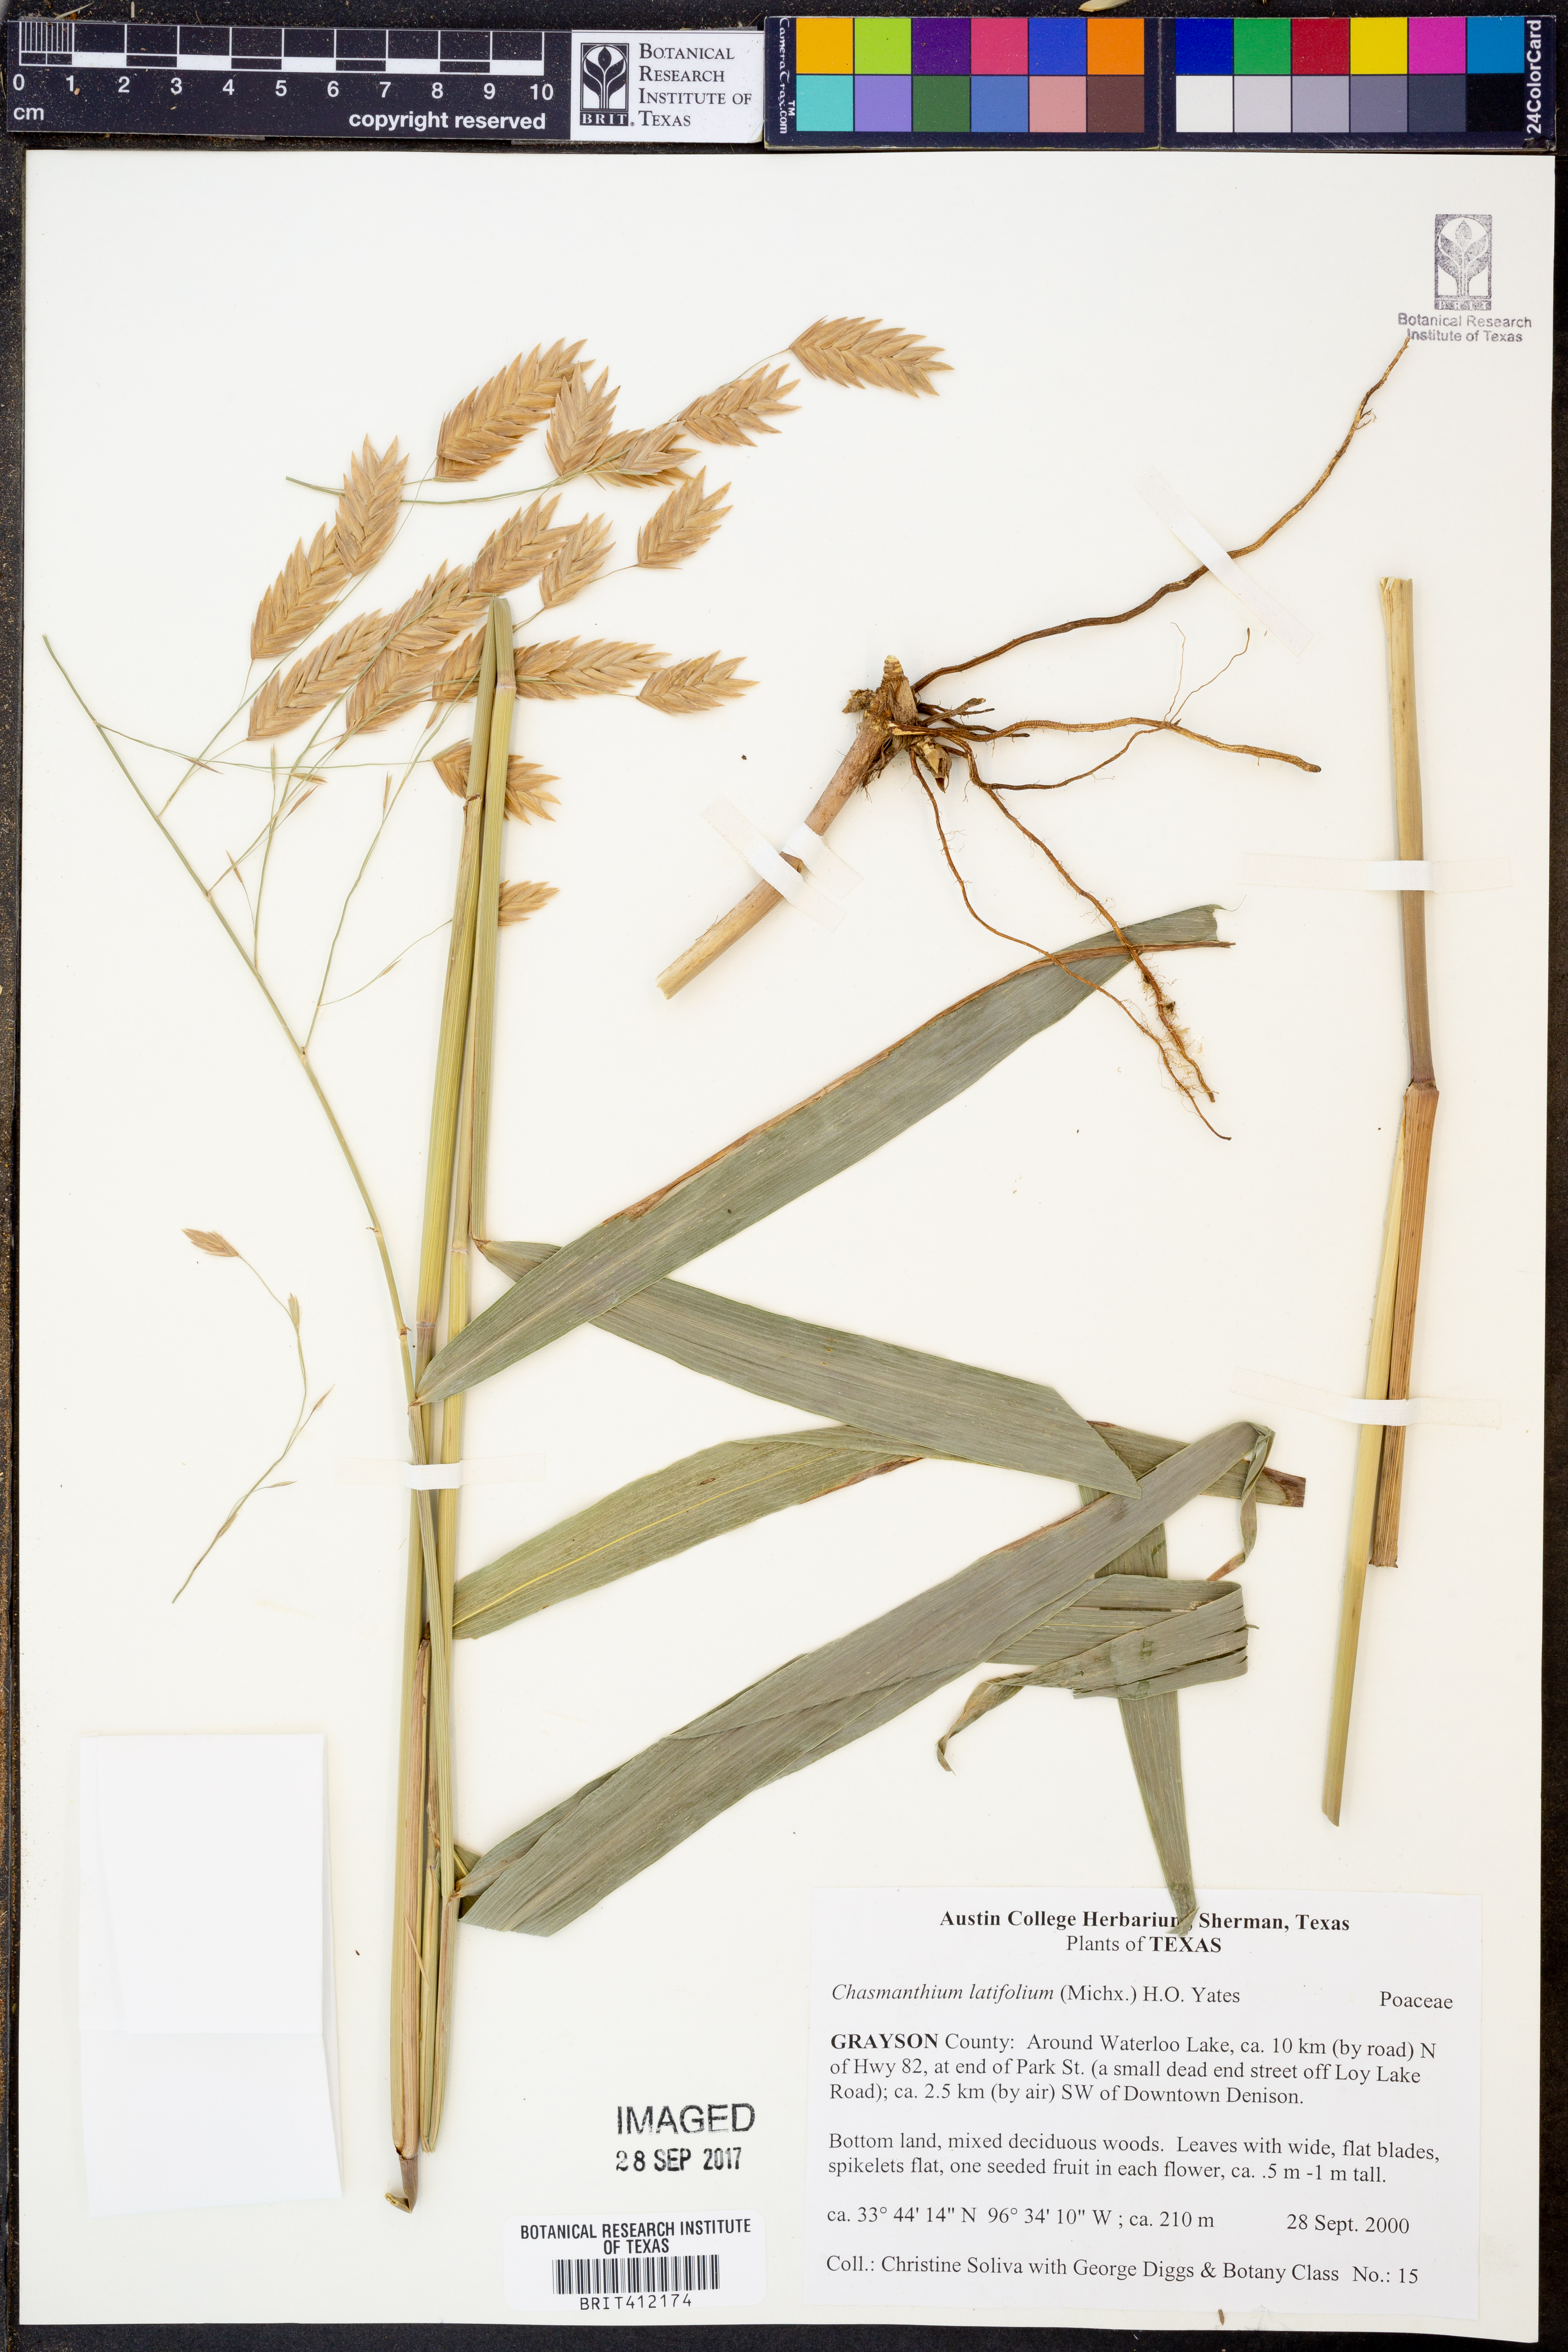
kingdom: Plantae
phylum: Tracheophyta
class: Liliopsida
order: Poales
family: Poaceae
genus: Chasmanthium
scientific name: Chasmanthium latifolium
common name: Broad-leaved chasmanthium
